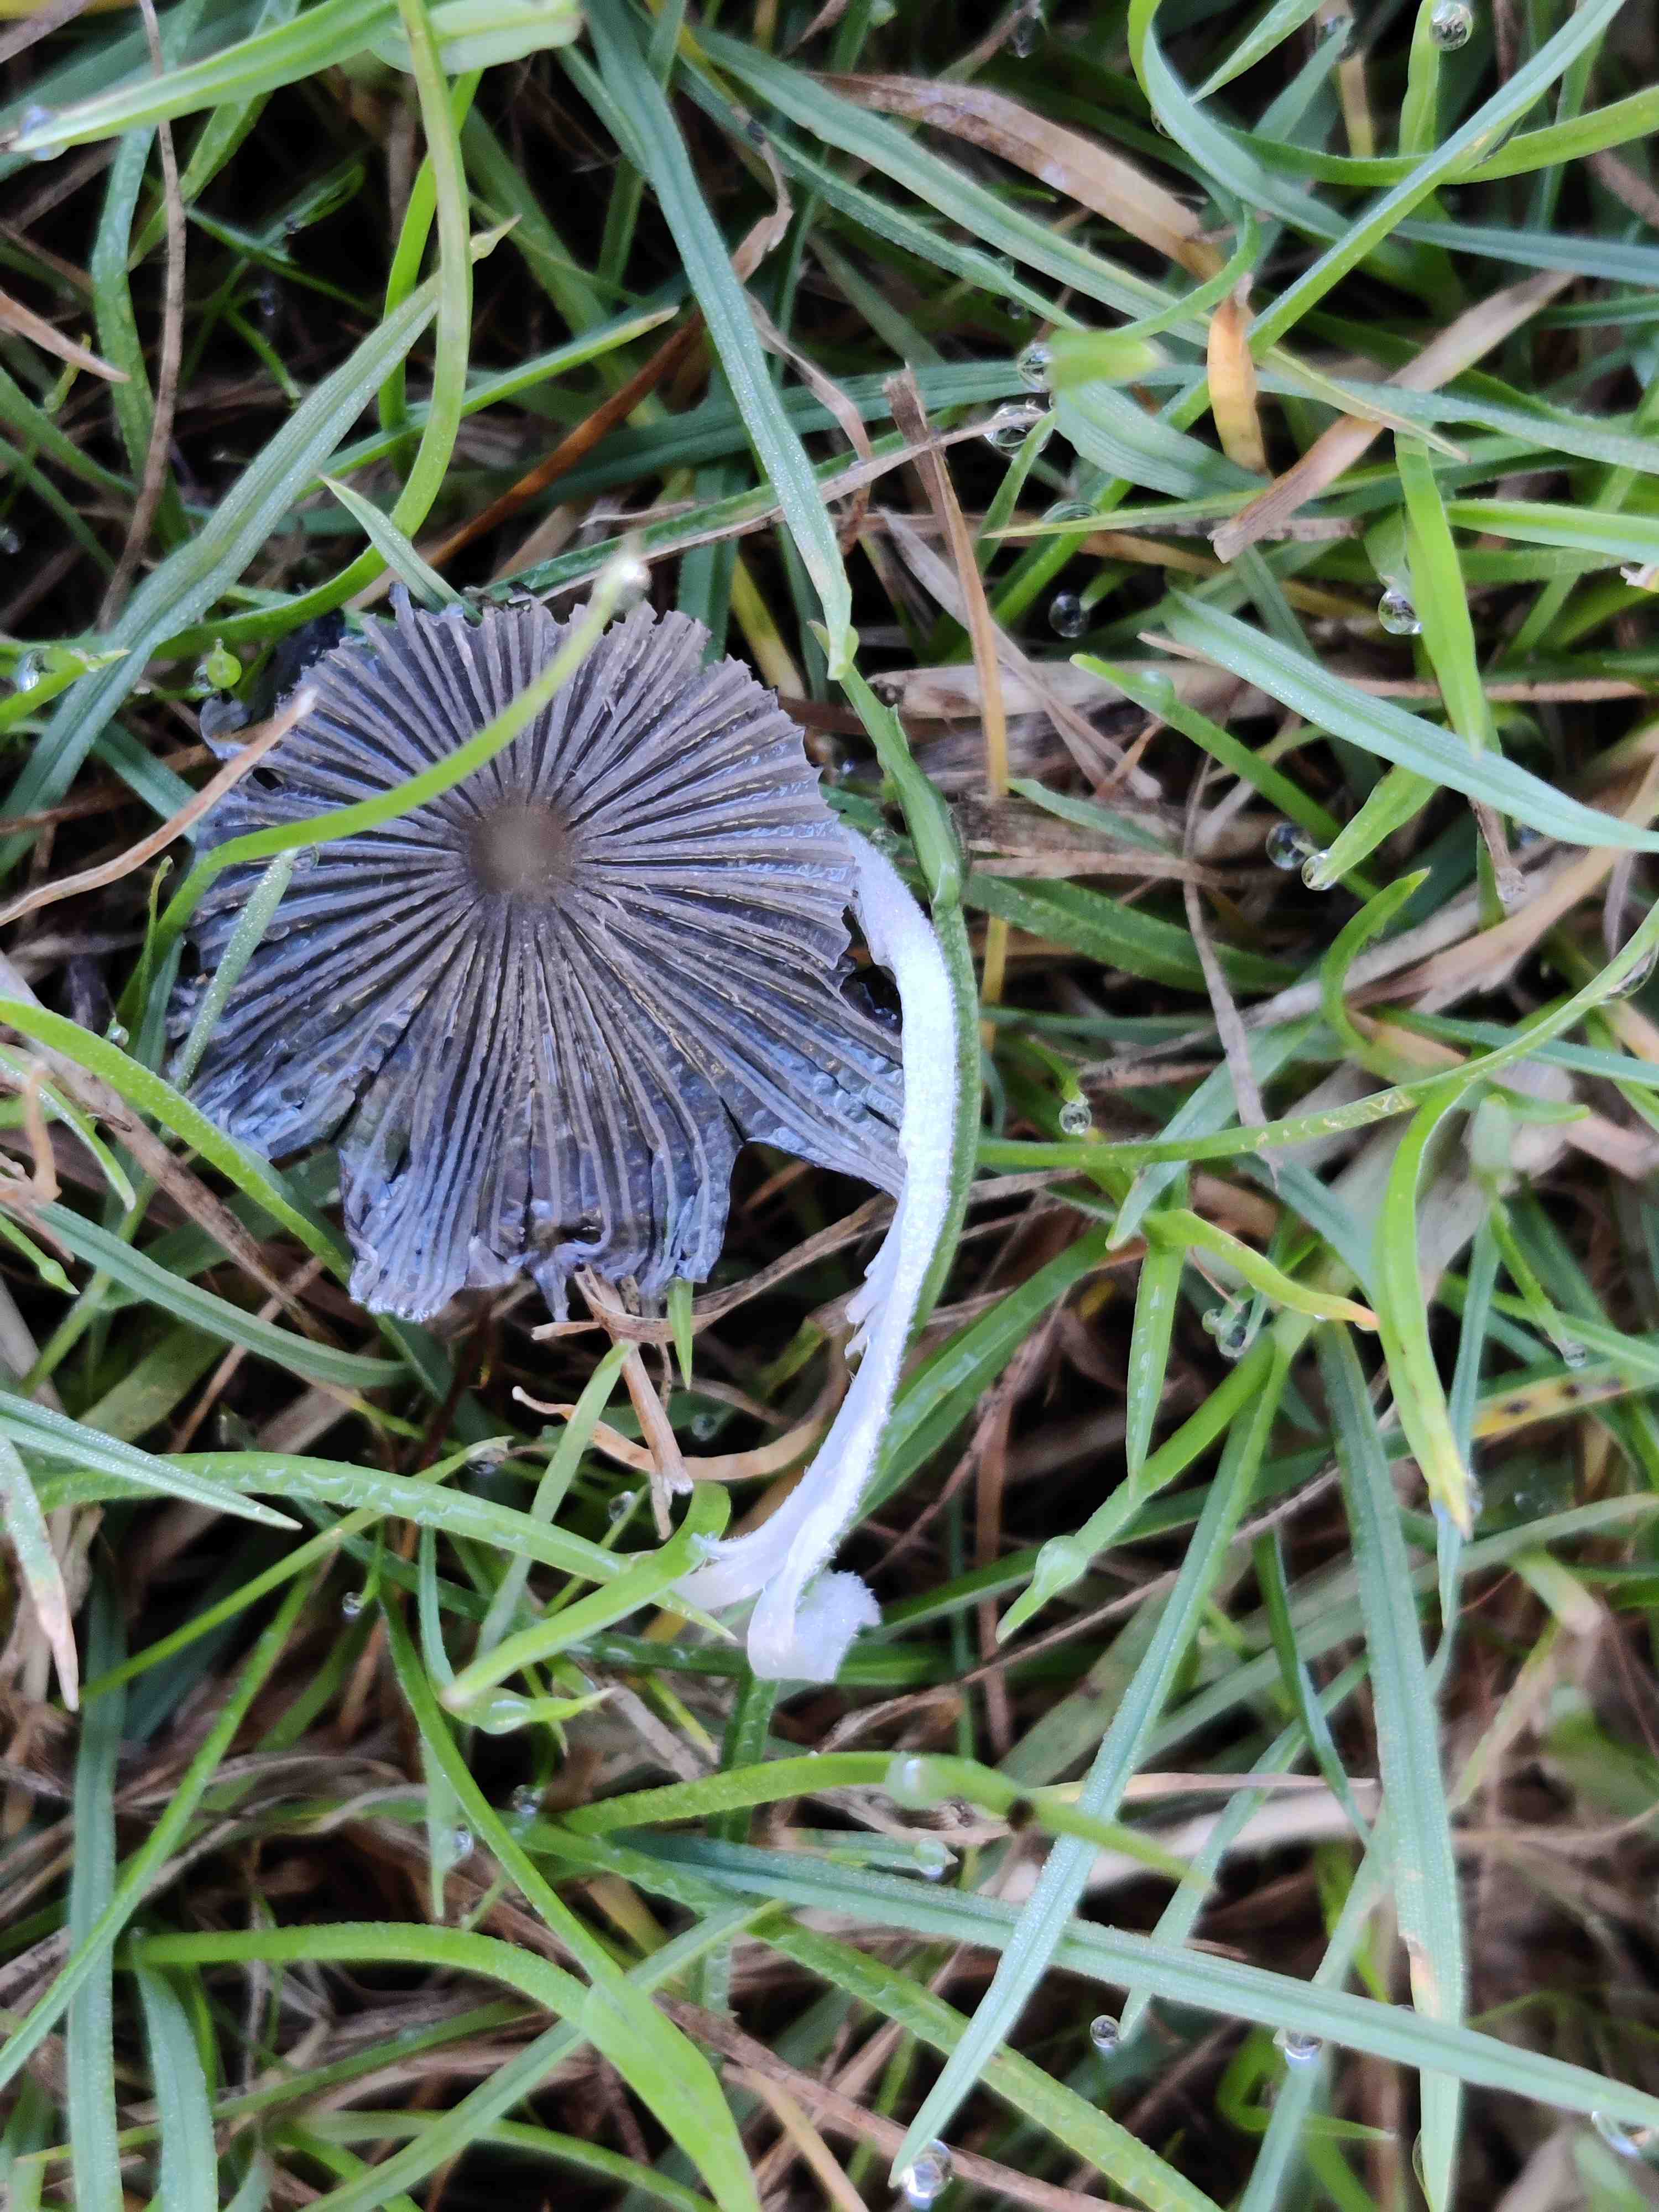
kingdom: Fungi
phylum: Basidiomycota
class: Agaricomycetes
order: Agaricales
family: Psathyrellaceae
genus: Coprinopsis
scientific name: Coprinopsis lagopus
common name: dunstokket blækhat
